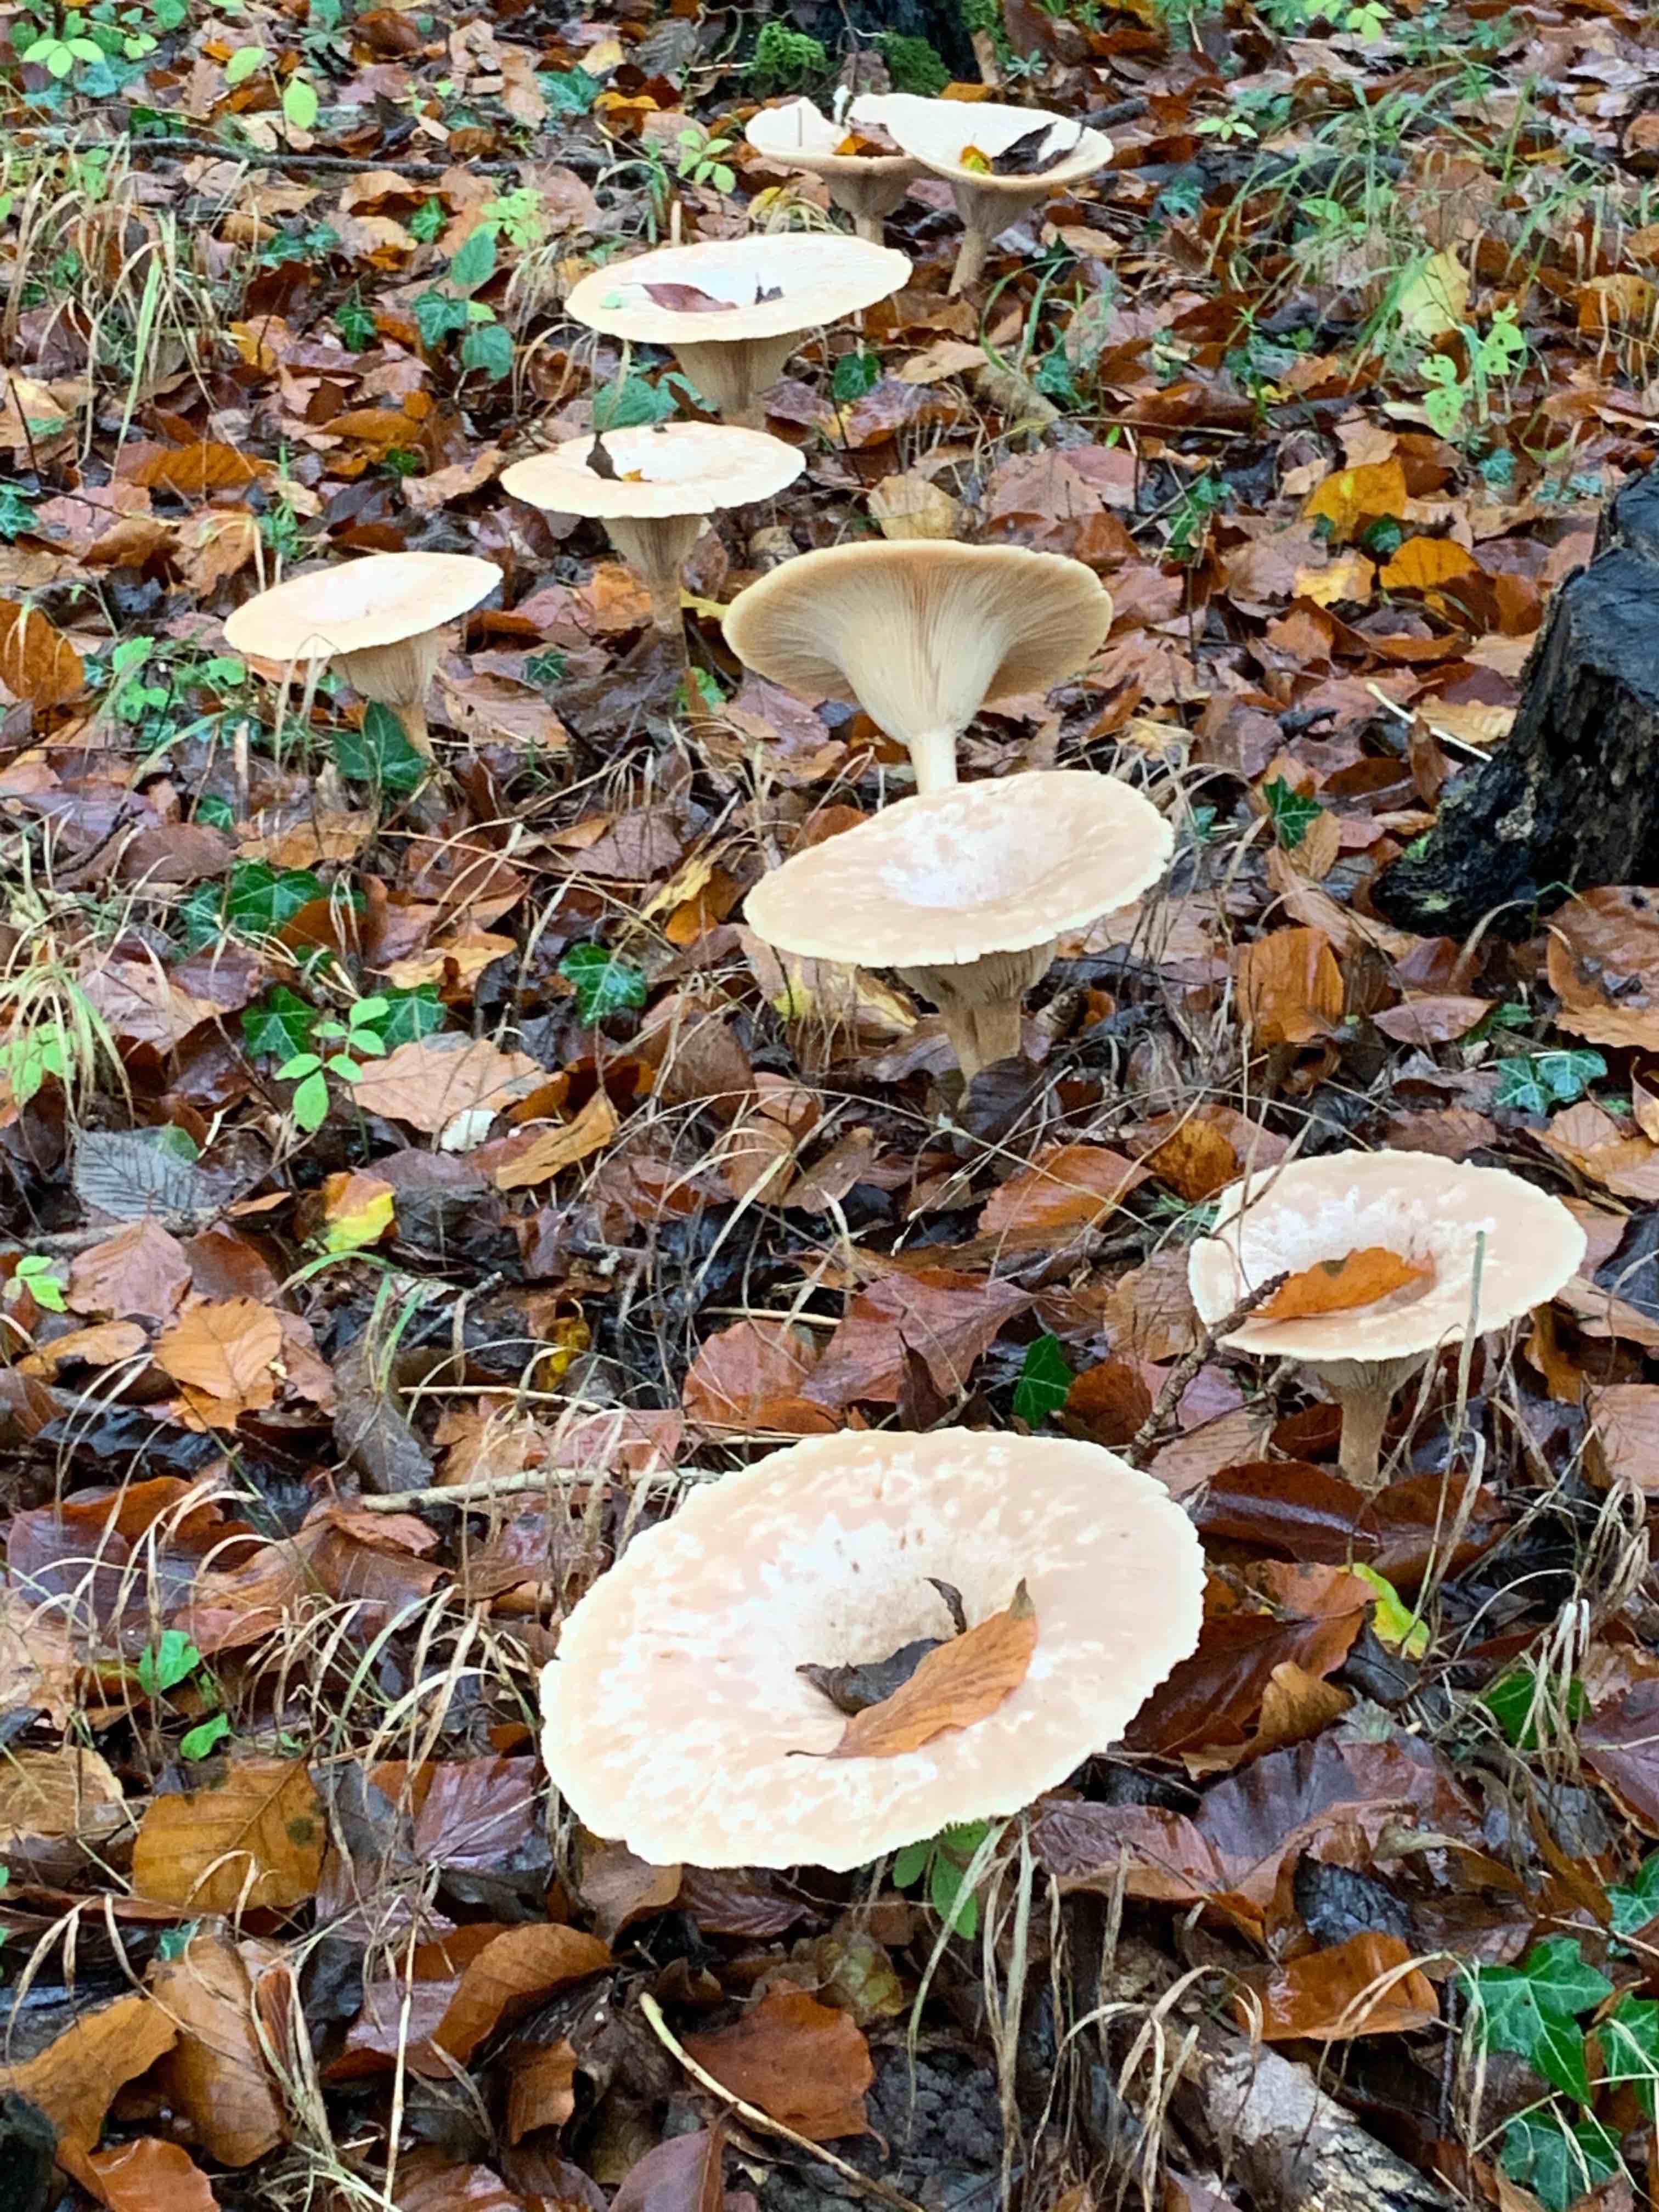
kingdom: Fungi
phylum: Basidiomycota
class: Agaricomycetes
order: Agaricales
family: Tricholomataceae
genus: Infundibulicybe
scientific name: Infundibulicybe geotropa
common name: stor tragthat
